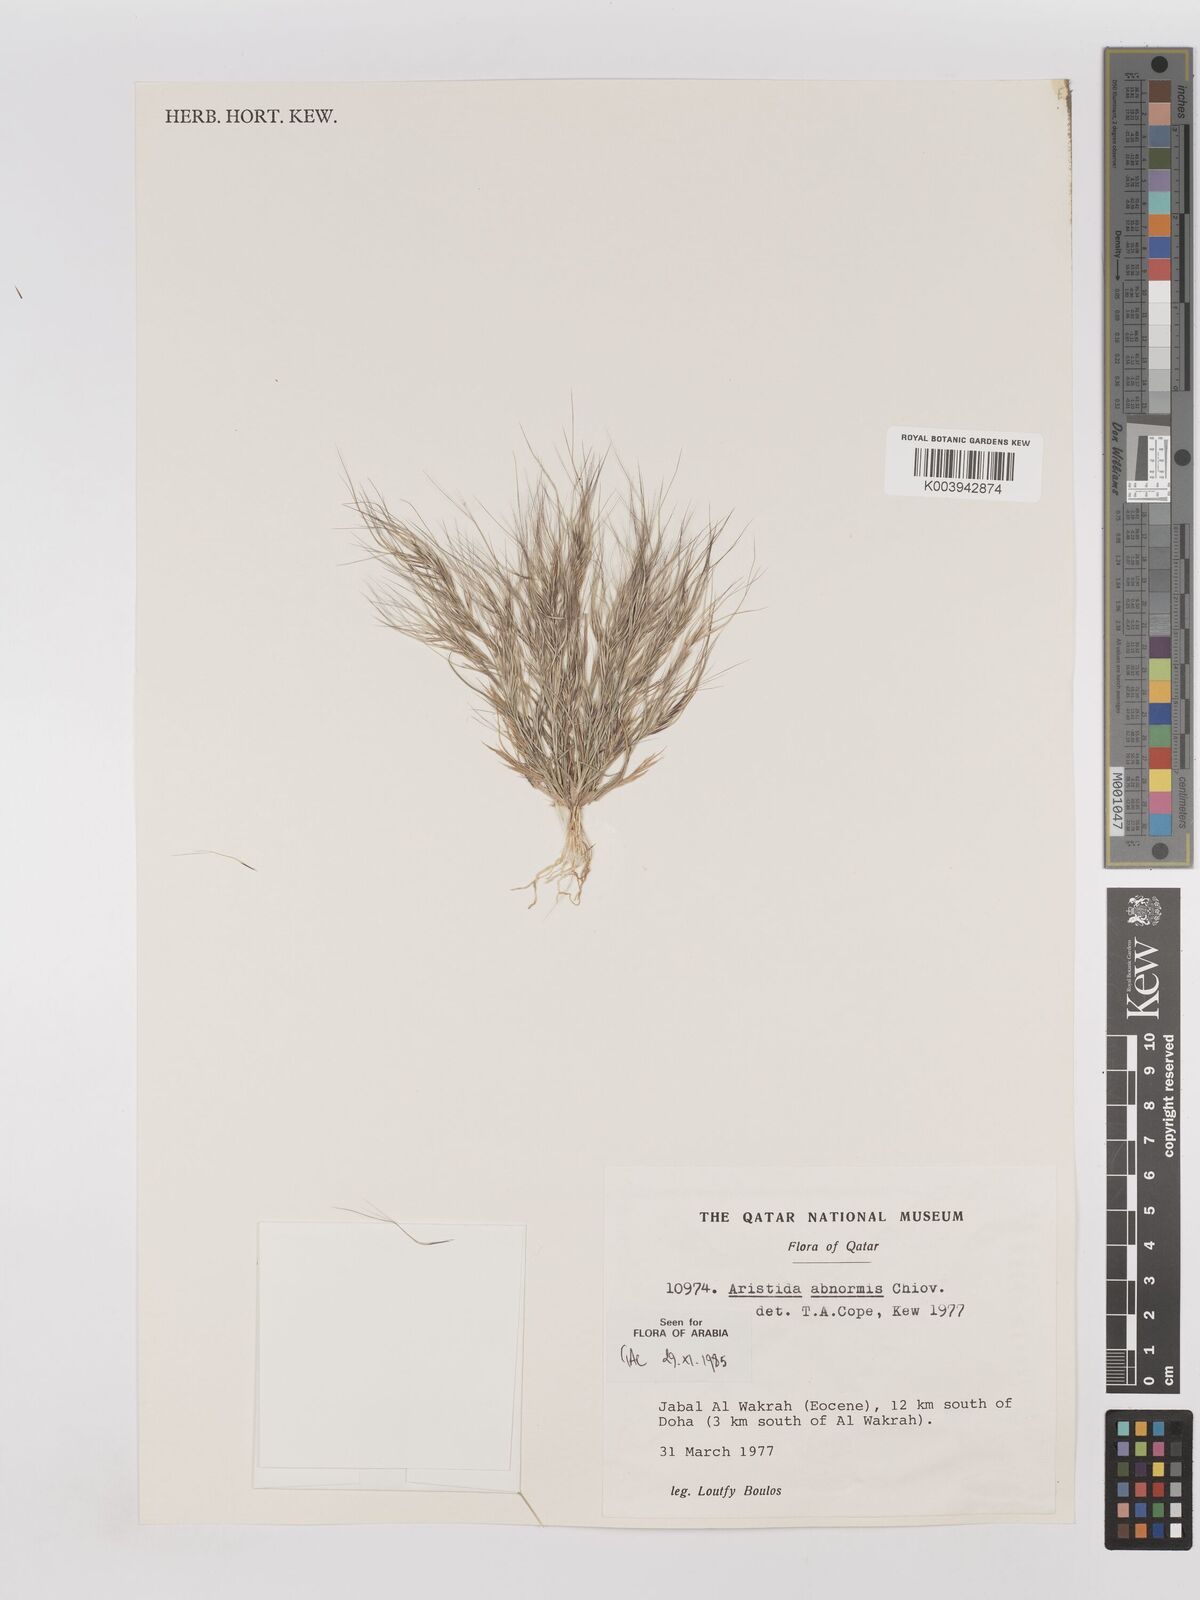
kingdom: Plantae
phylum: Tracheophyta
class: Liliopsida
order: Poales
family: Poaceae
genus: Aristida
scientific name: Aristida abnormis
